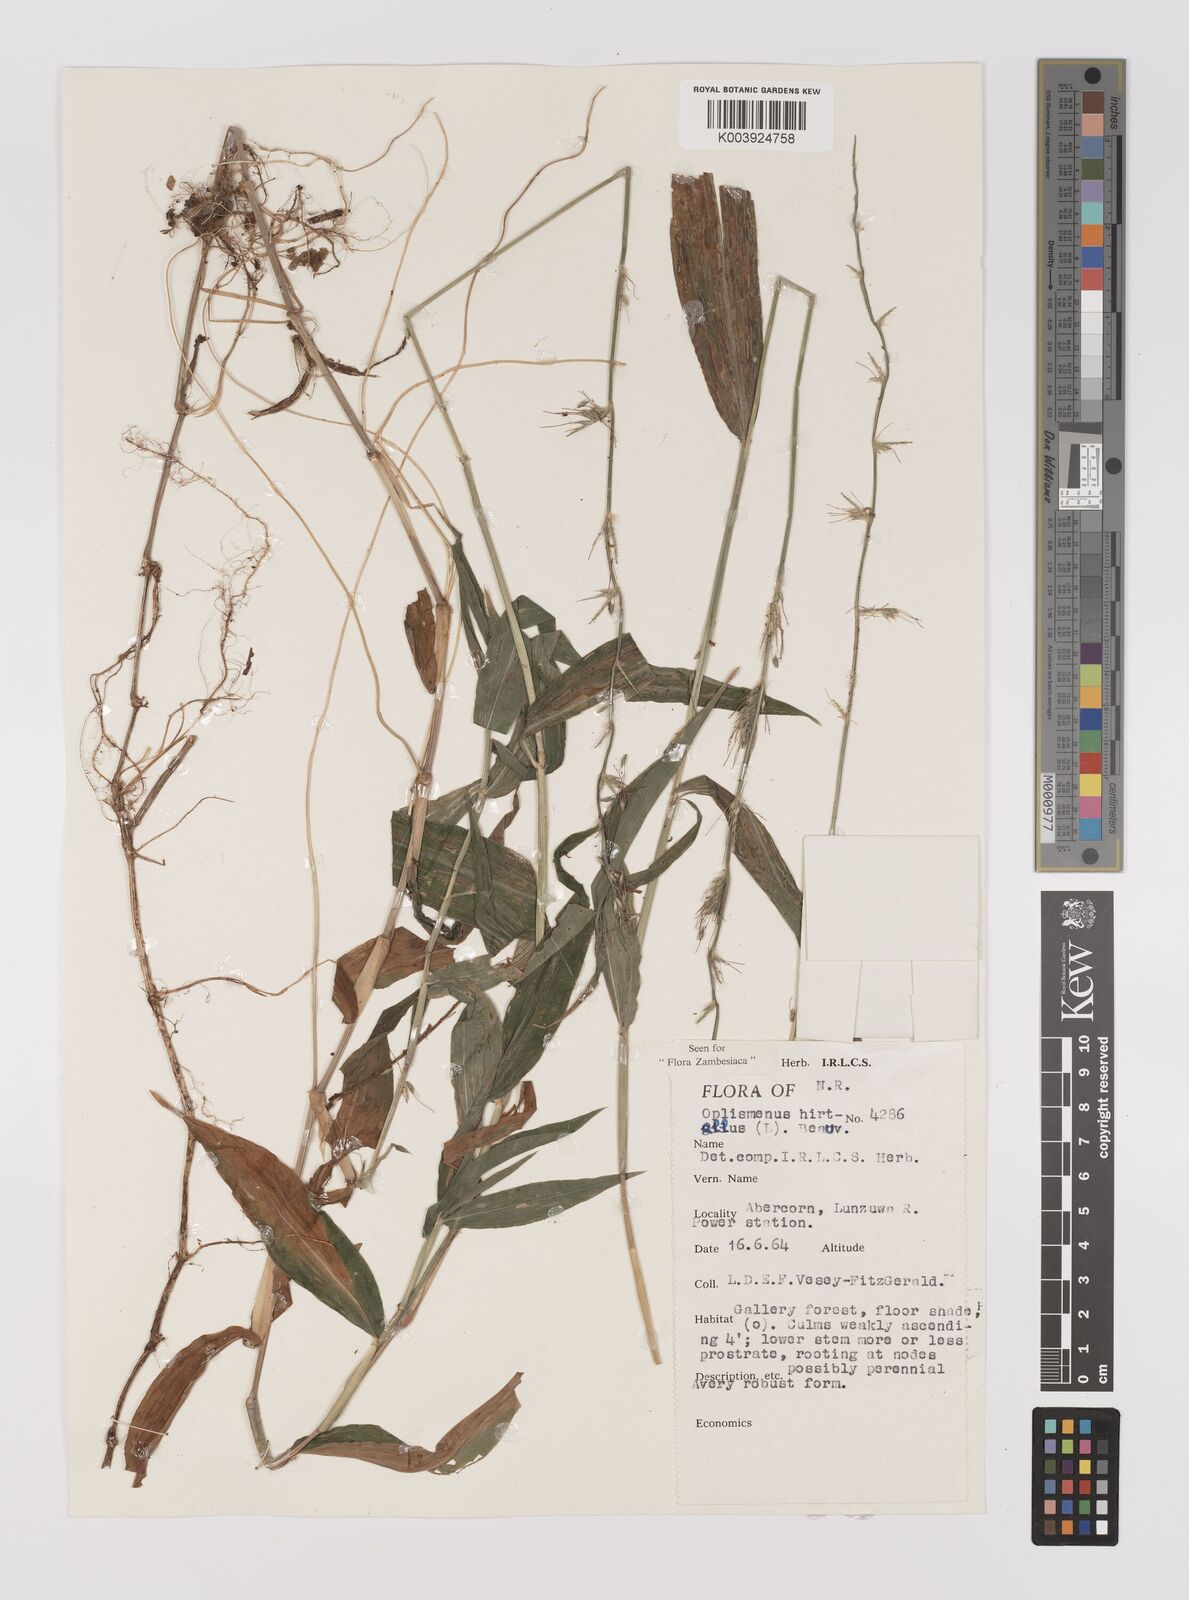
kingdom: Plantae
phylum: Tracheophyta
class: Liliopsida
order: Poales
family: Poaceae
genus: Oplismenus
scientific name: Oplismenus hirtellus
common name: Basketgrass
